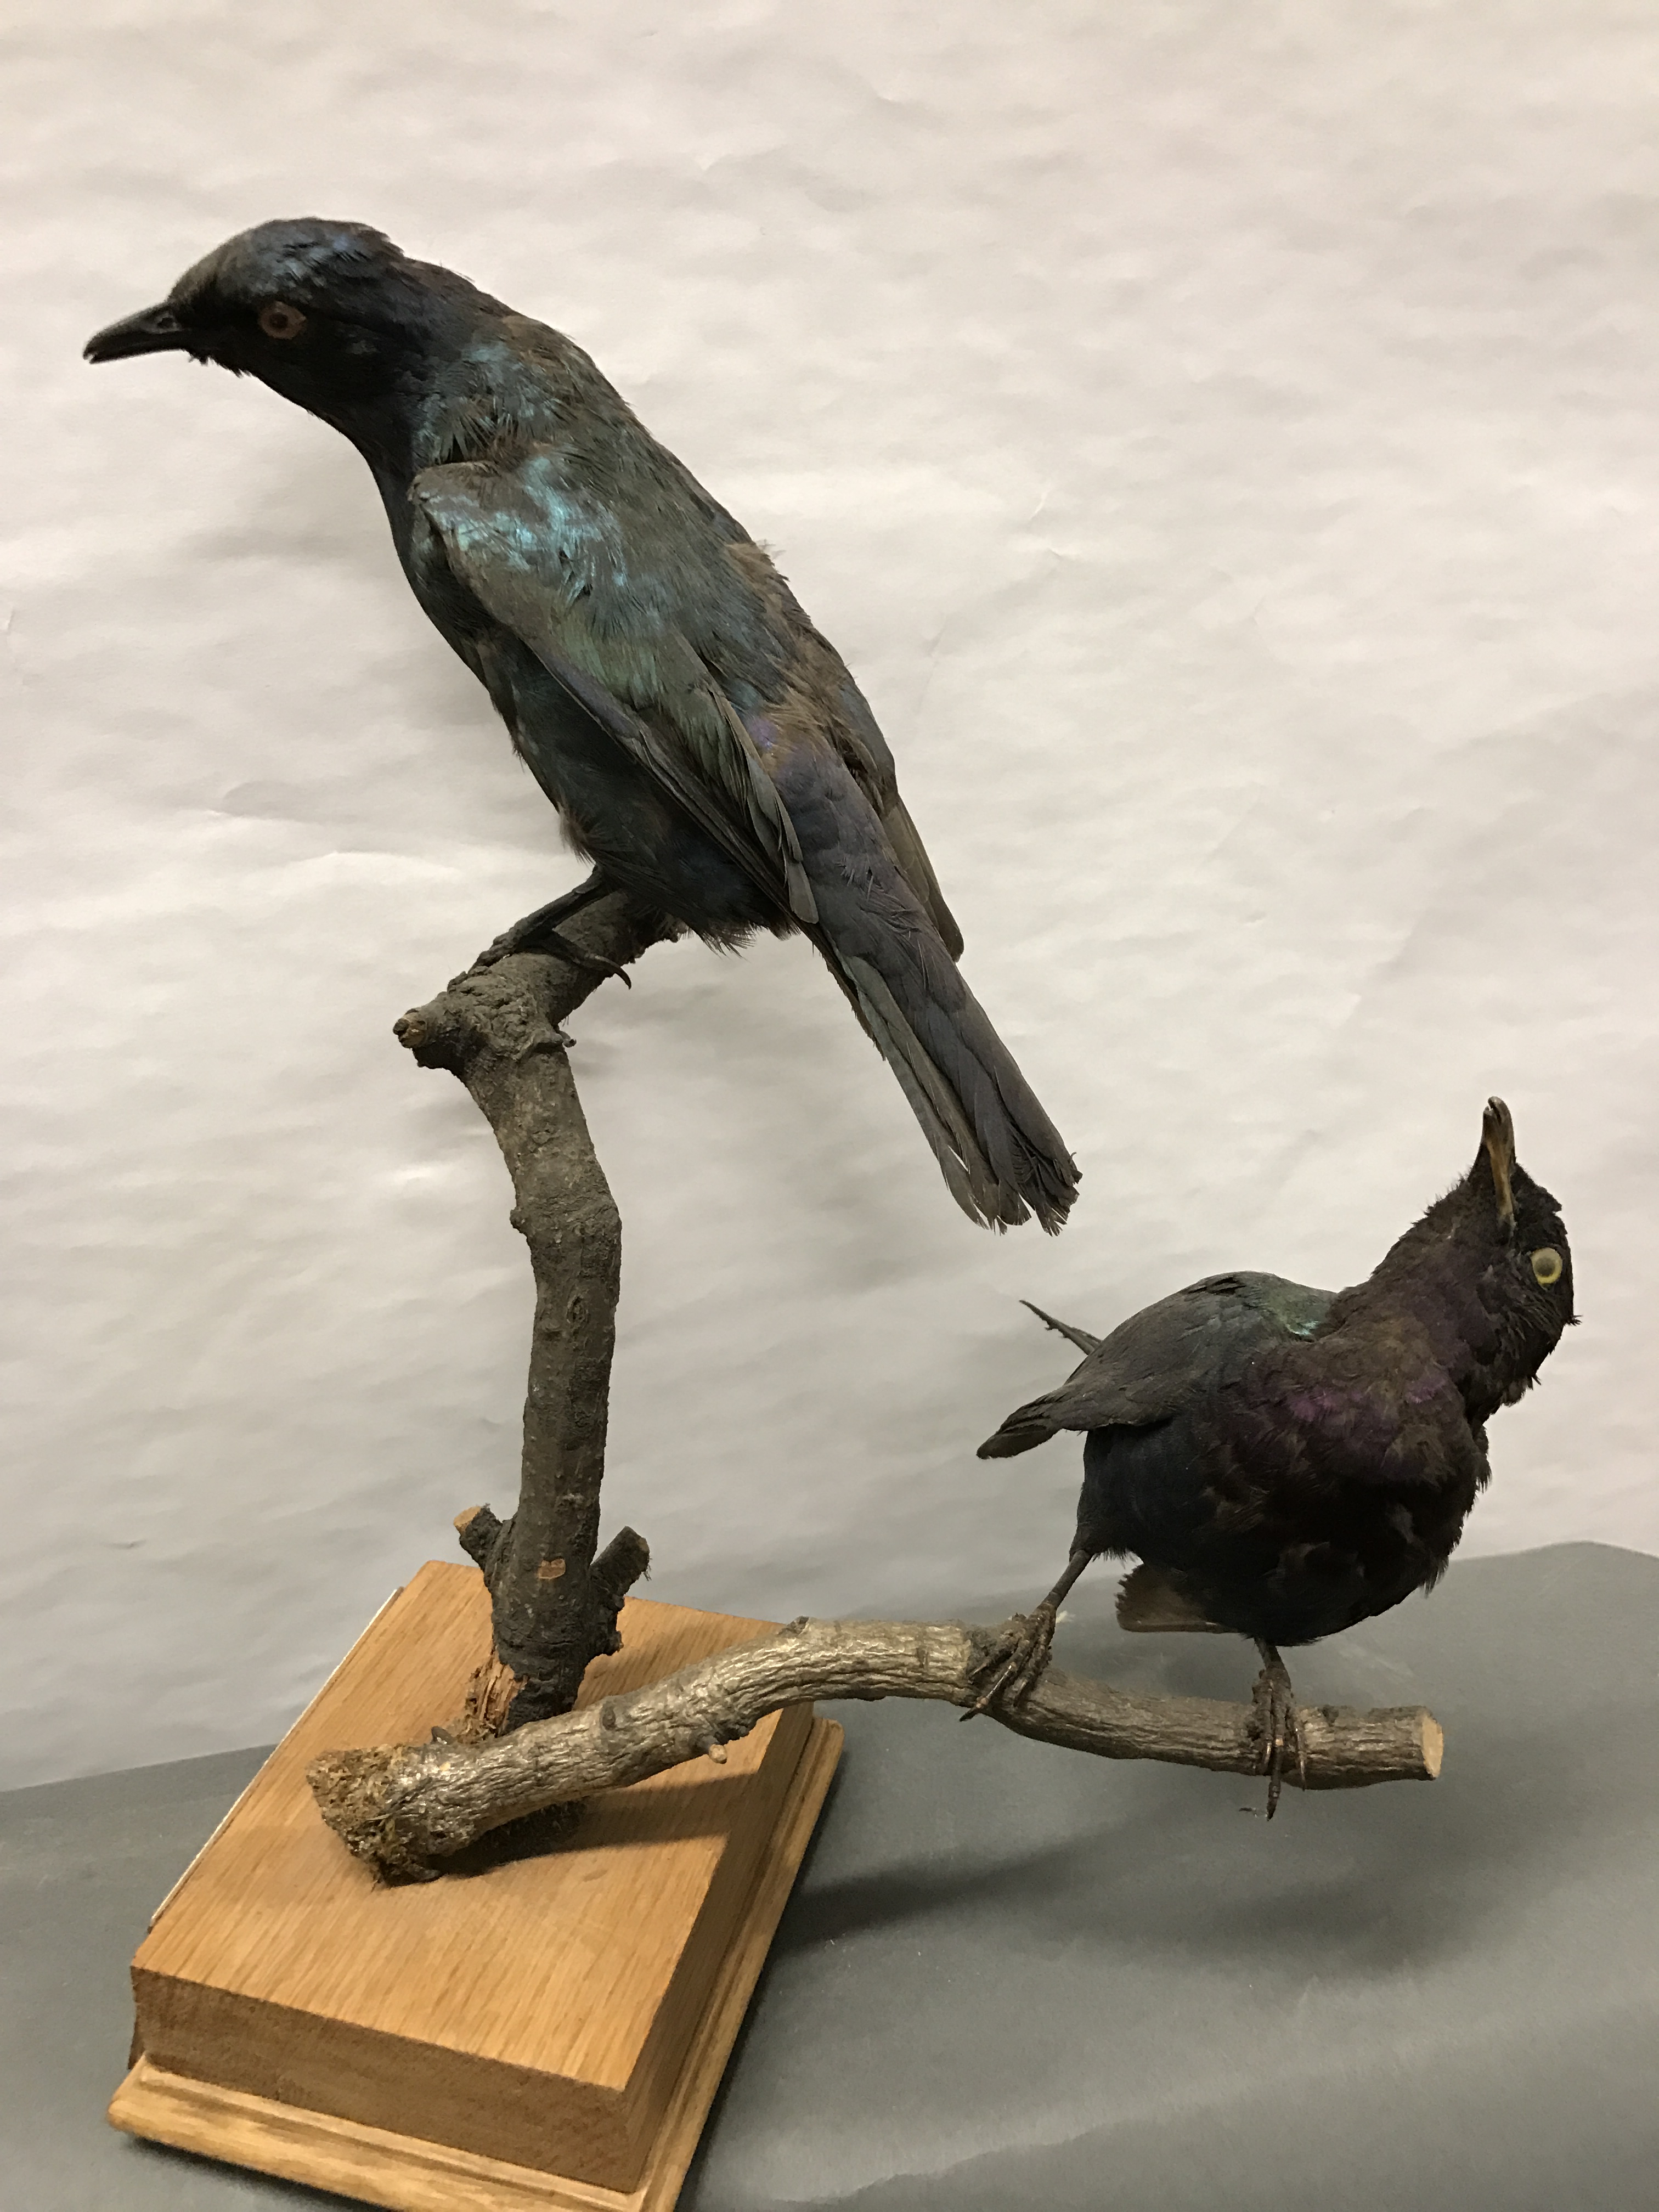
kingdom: Animalia
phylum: Chordata
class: Aves
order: Passeriformes
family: Sturnidae
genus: Hylopsar
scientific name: Hylopsar purpureiceps
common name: Purple-headed starling
